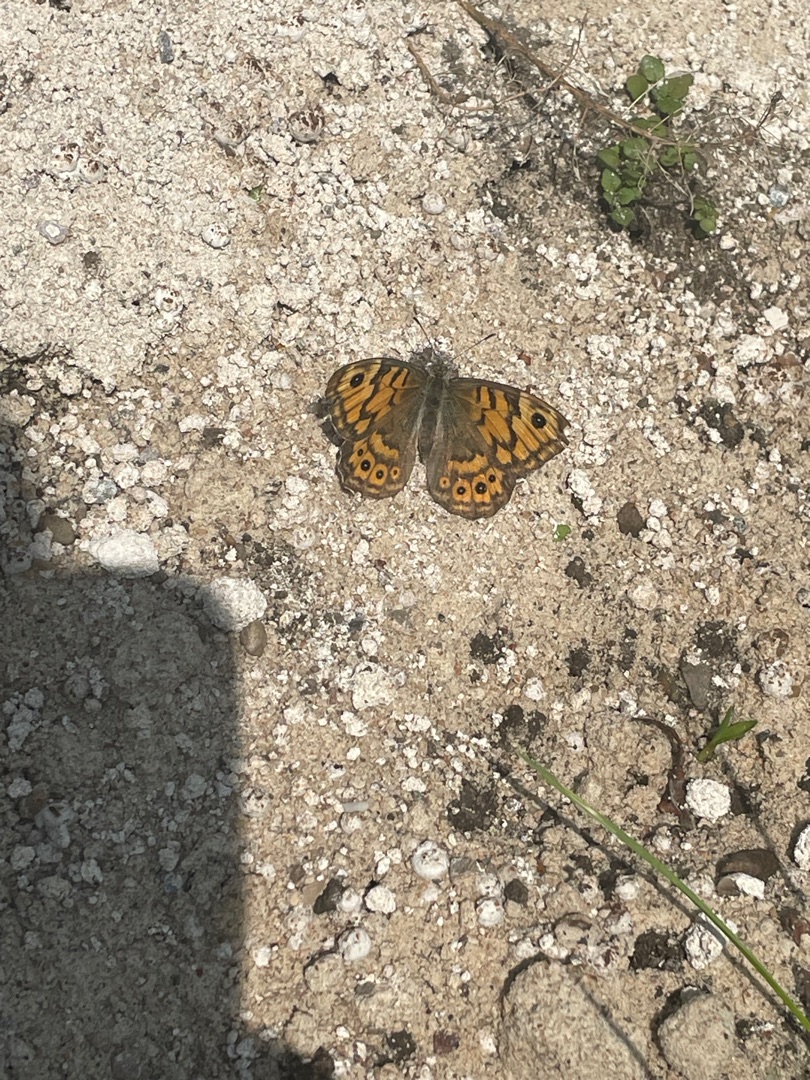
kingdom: Animalia
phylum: Arthropoda
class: Insecta
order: Lepidoptera
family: Nymphalidae
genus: Pararge
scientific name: Pararge Lasiommata megera
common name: Vejrandøje
